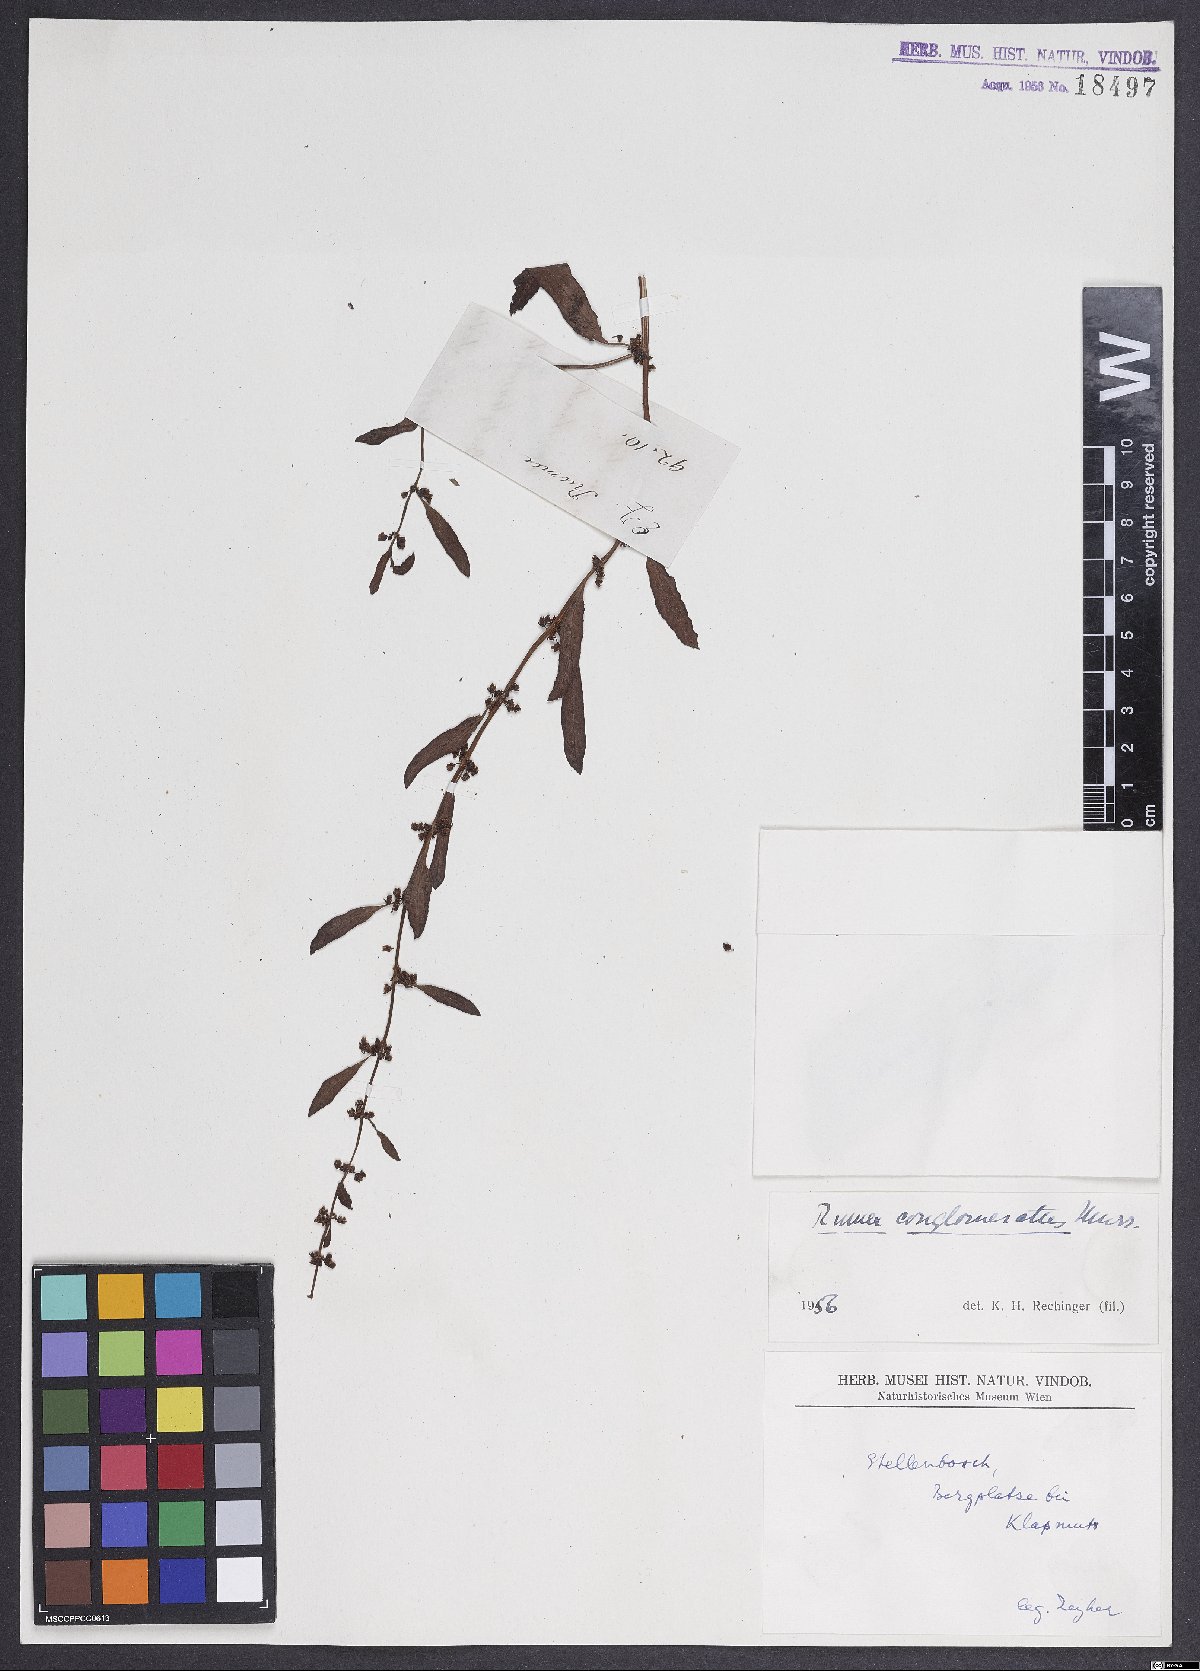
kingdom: Plantae
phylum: Tracheophyta
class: Magnoliopsida
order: Caryophyllales
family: Polygonaceae
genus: Rumex
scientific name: Rumex conglomeratus
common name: Clustered dock
